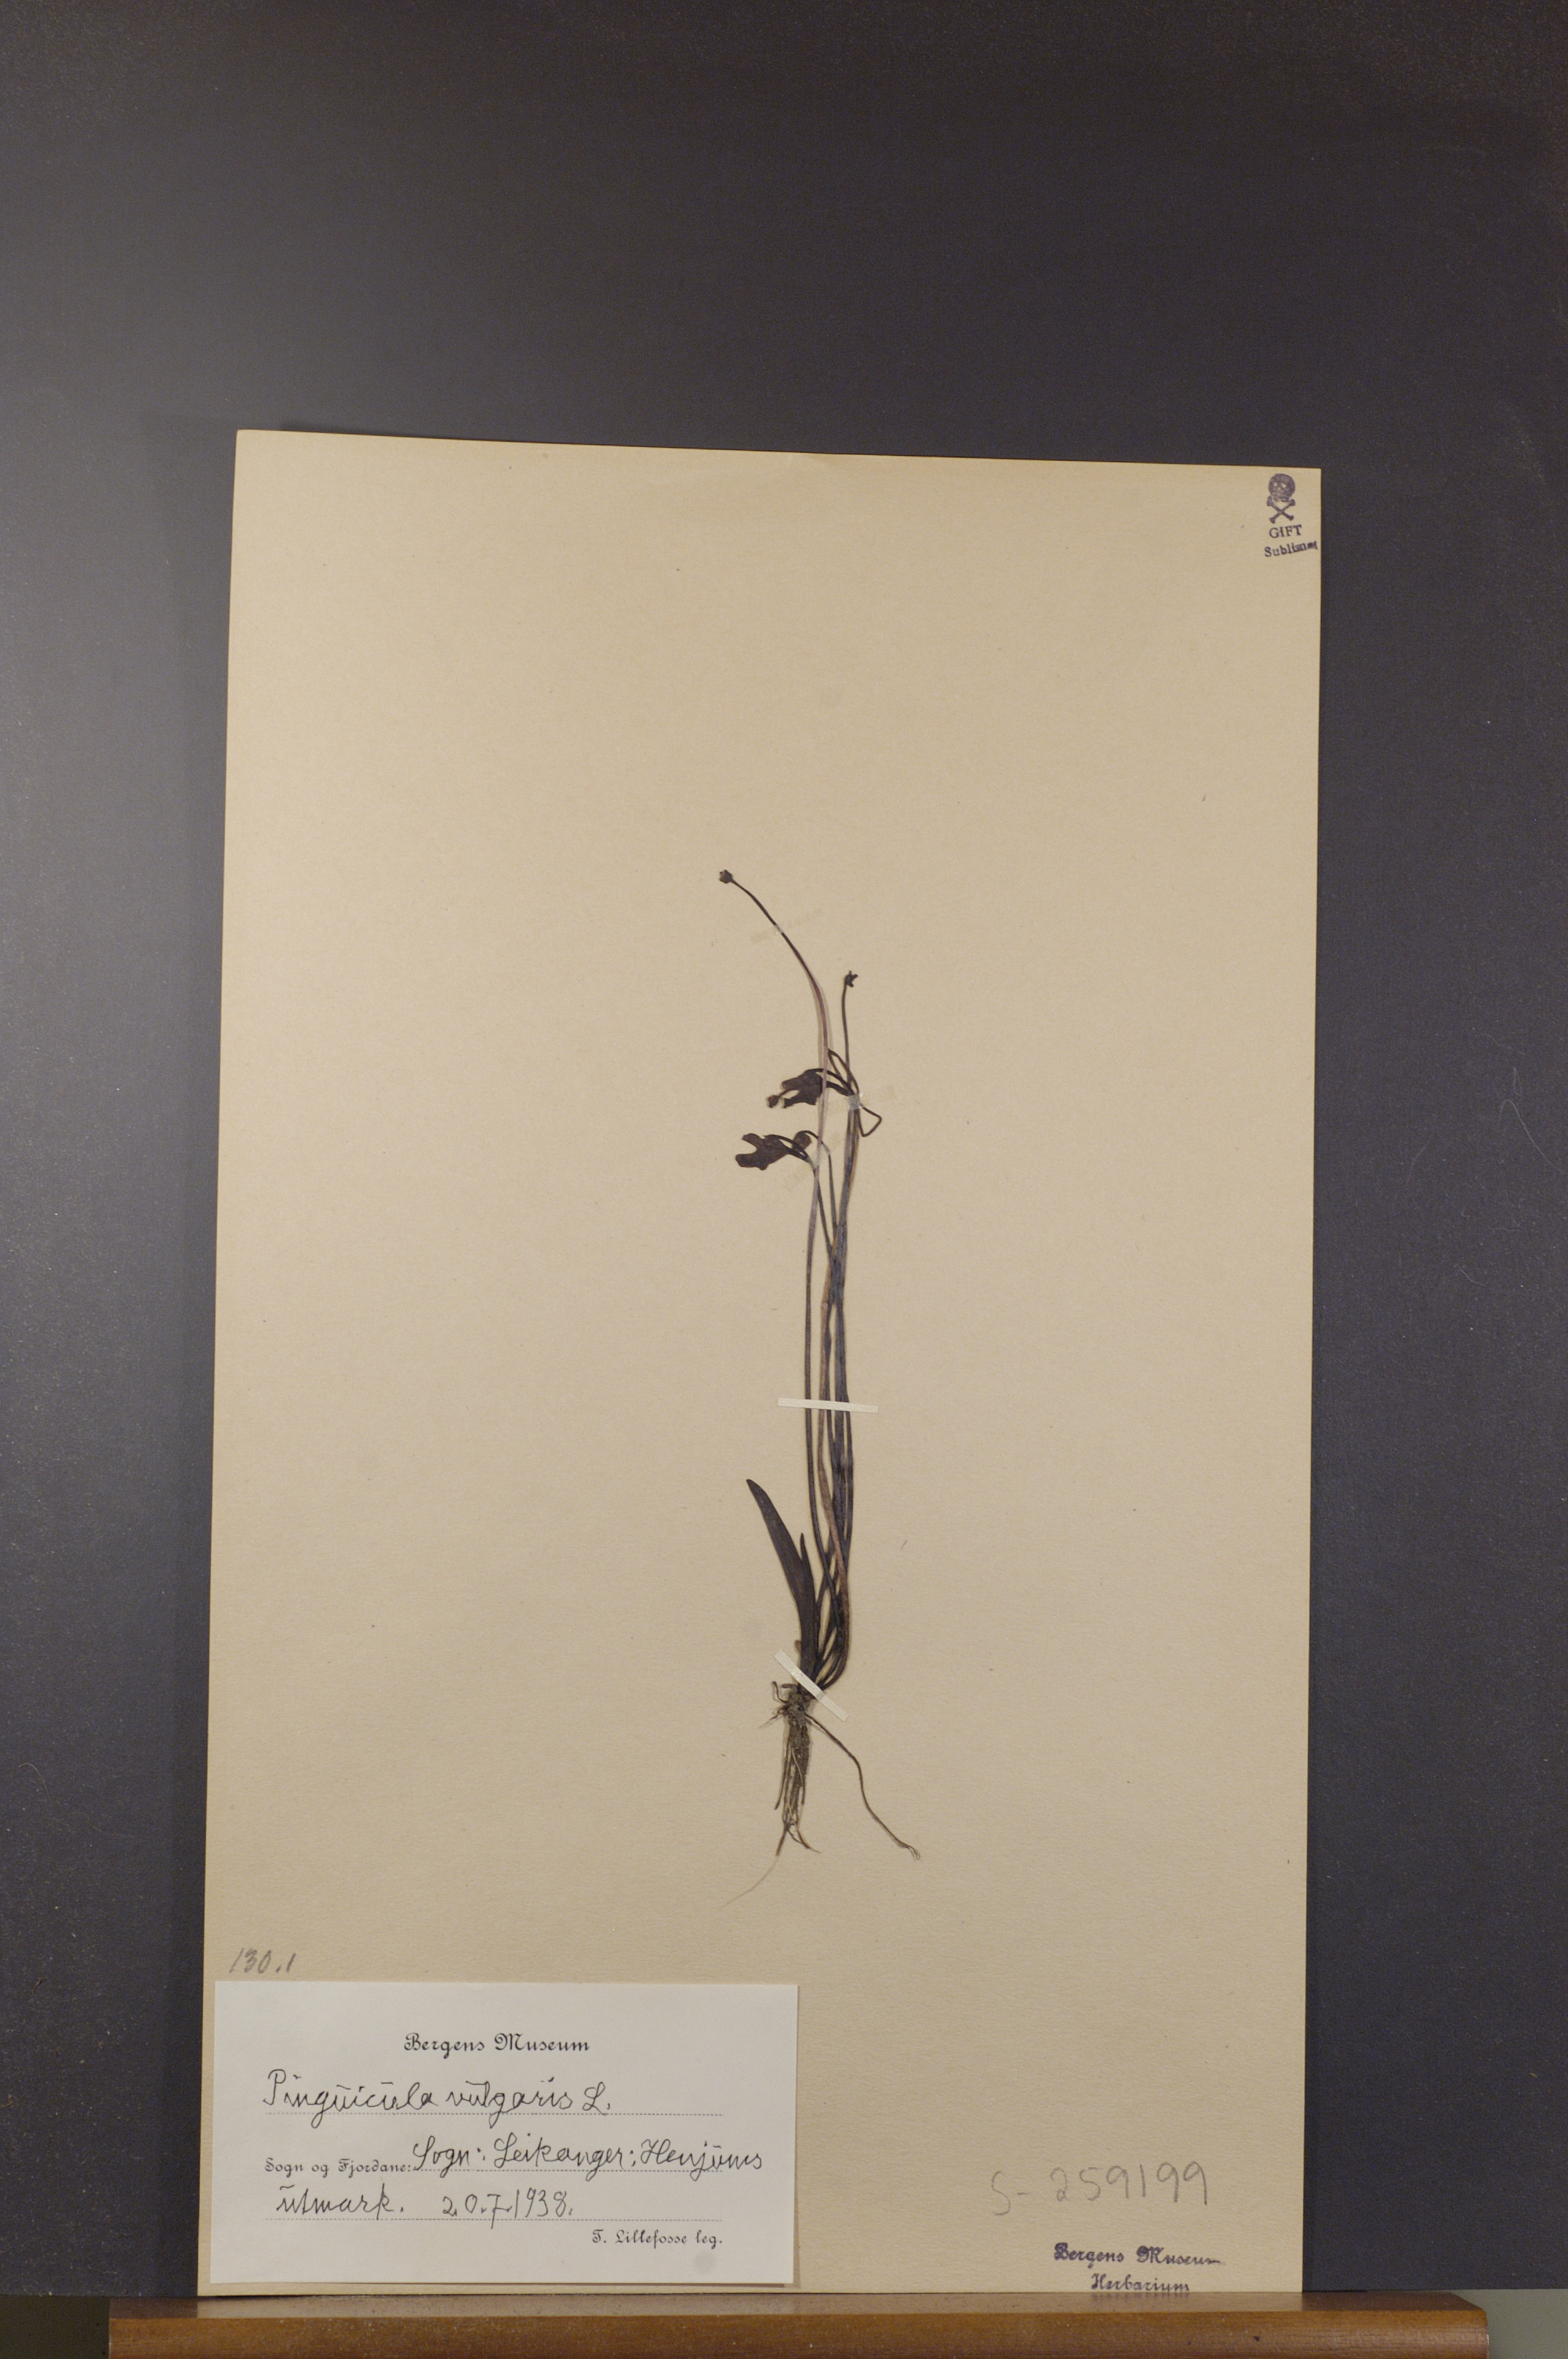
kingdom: Plantae
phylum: Tracheophyta
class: Magnoliopsida
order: Lamiales
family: Lentibulariaceae
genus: Pinguicula
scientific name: Pinguicula vulgaris
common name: Common butterwort
